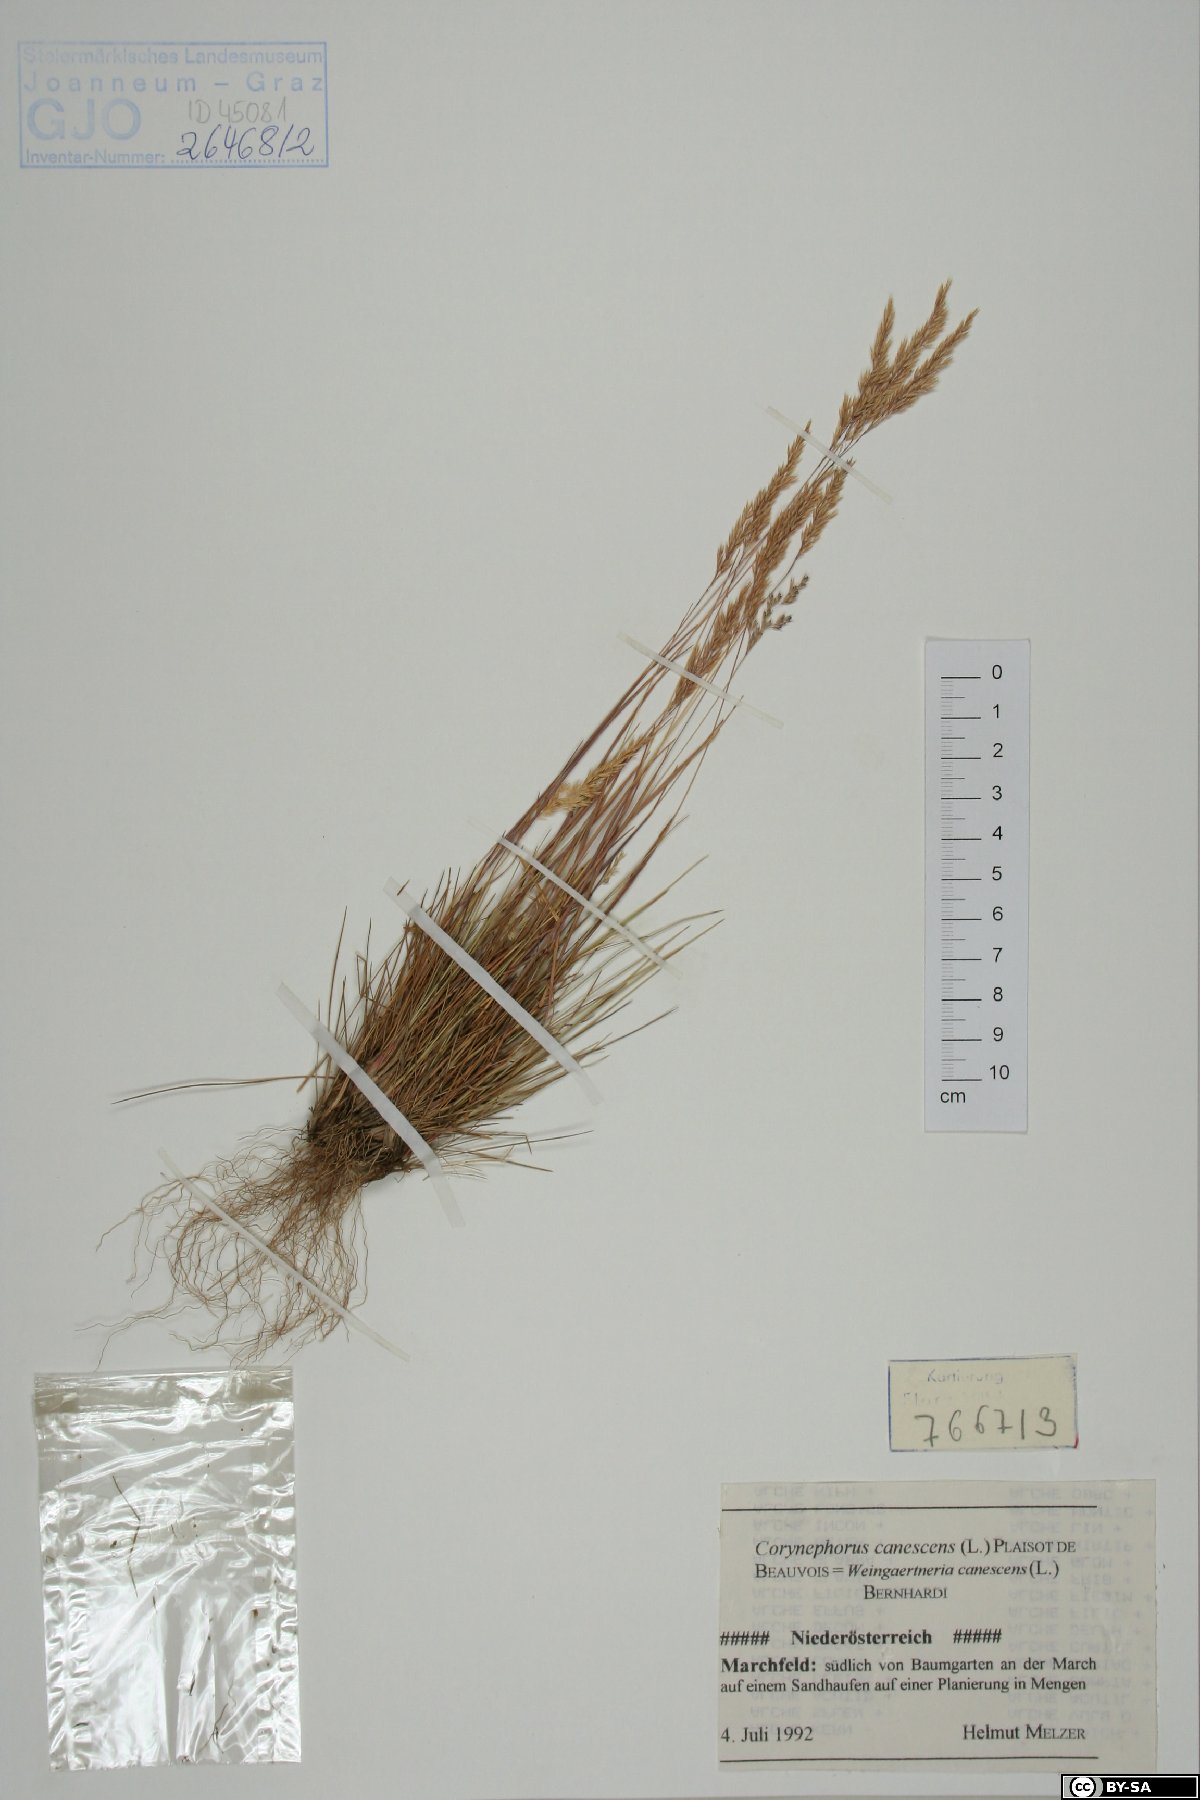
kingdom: Plantae
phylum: Tracheophyta
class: Liliopsida
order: Poales
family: Poaceae
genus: Corynephorus
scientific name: Corynephorus canescens
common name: Grey hair-grass
